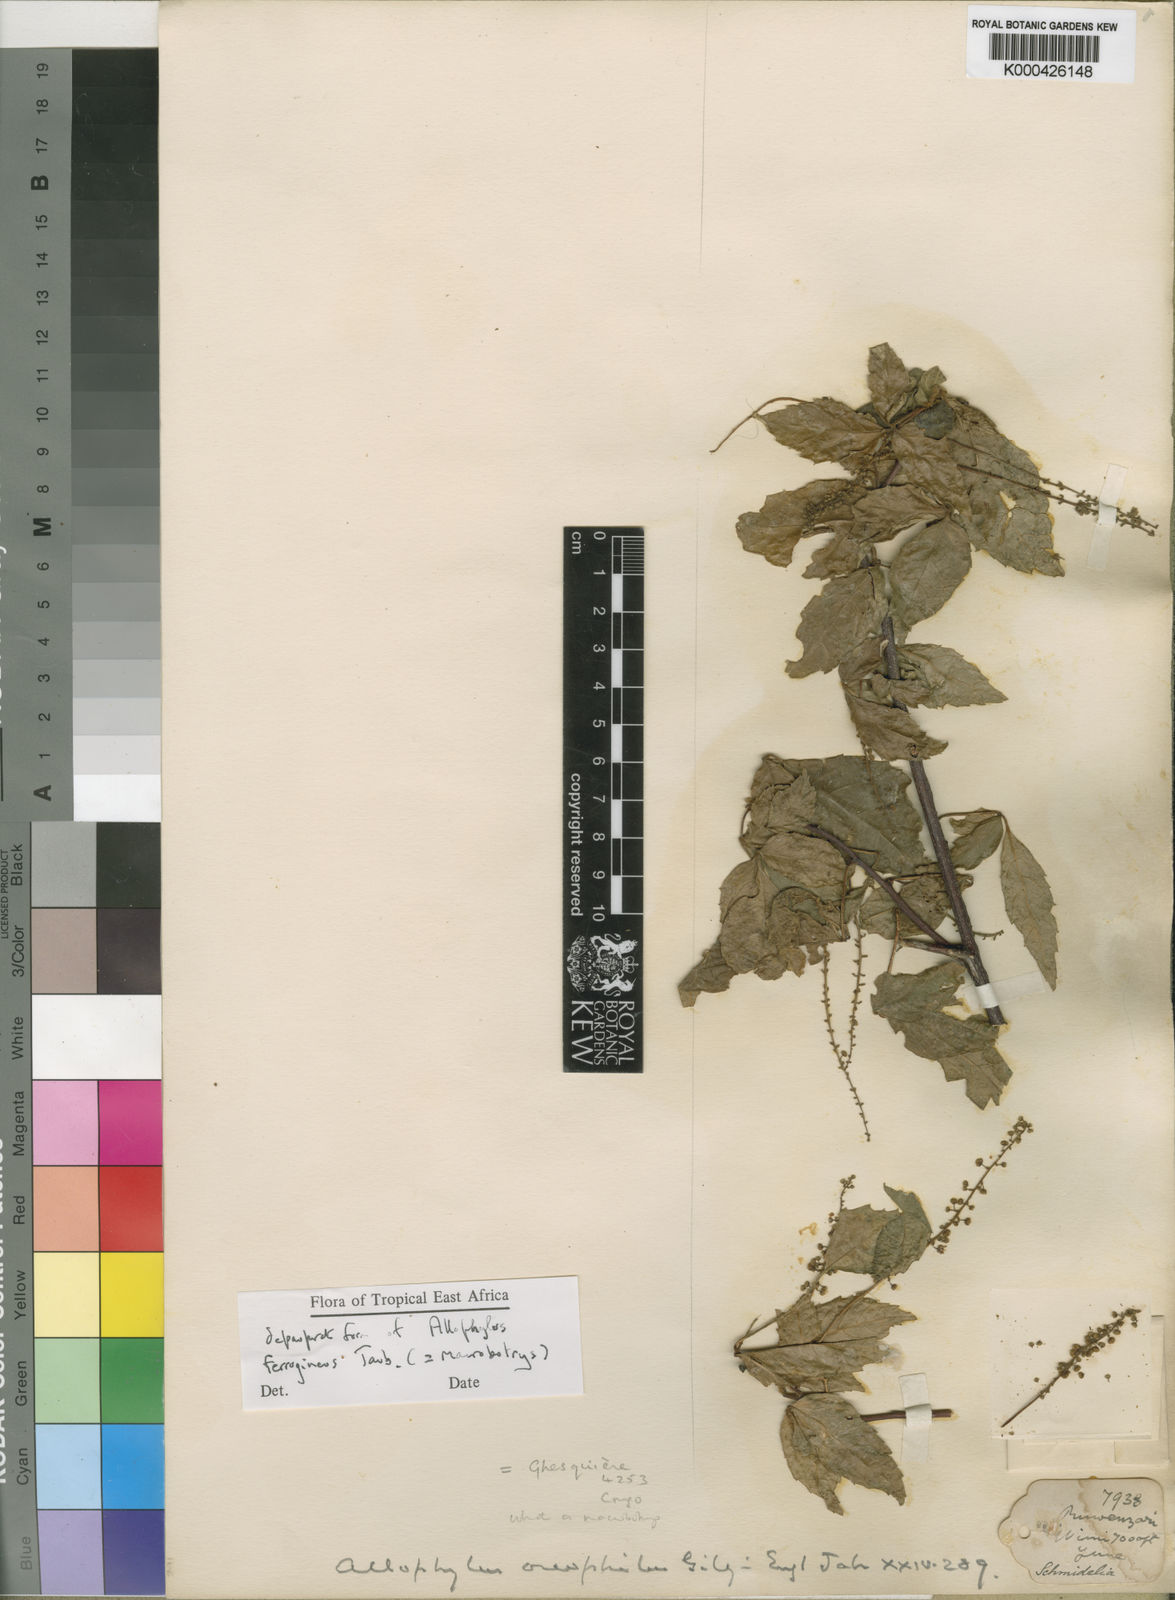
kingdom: Plantae
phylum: Tracheophyta
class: Magnoliopsida
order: Sapindales
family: Sapindaceae
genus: Allophylus
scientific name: Allophylus ferrugineus
